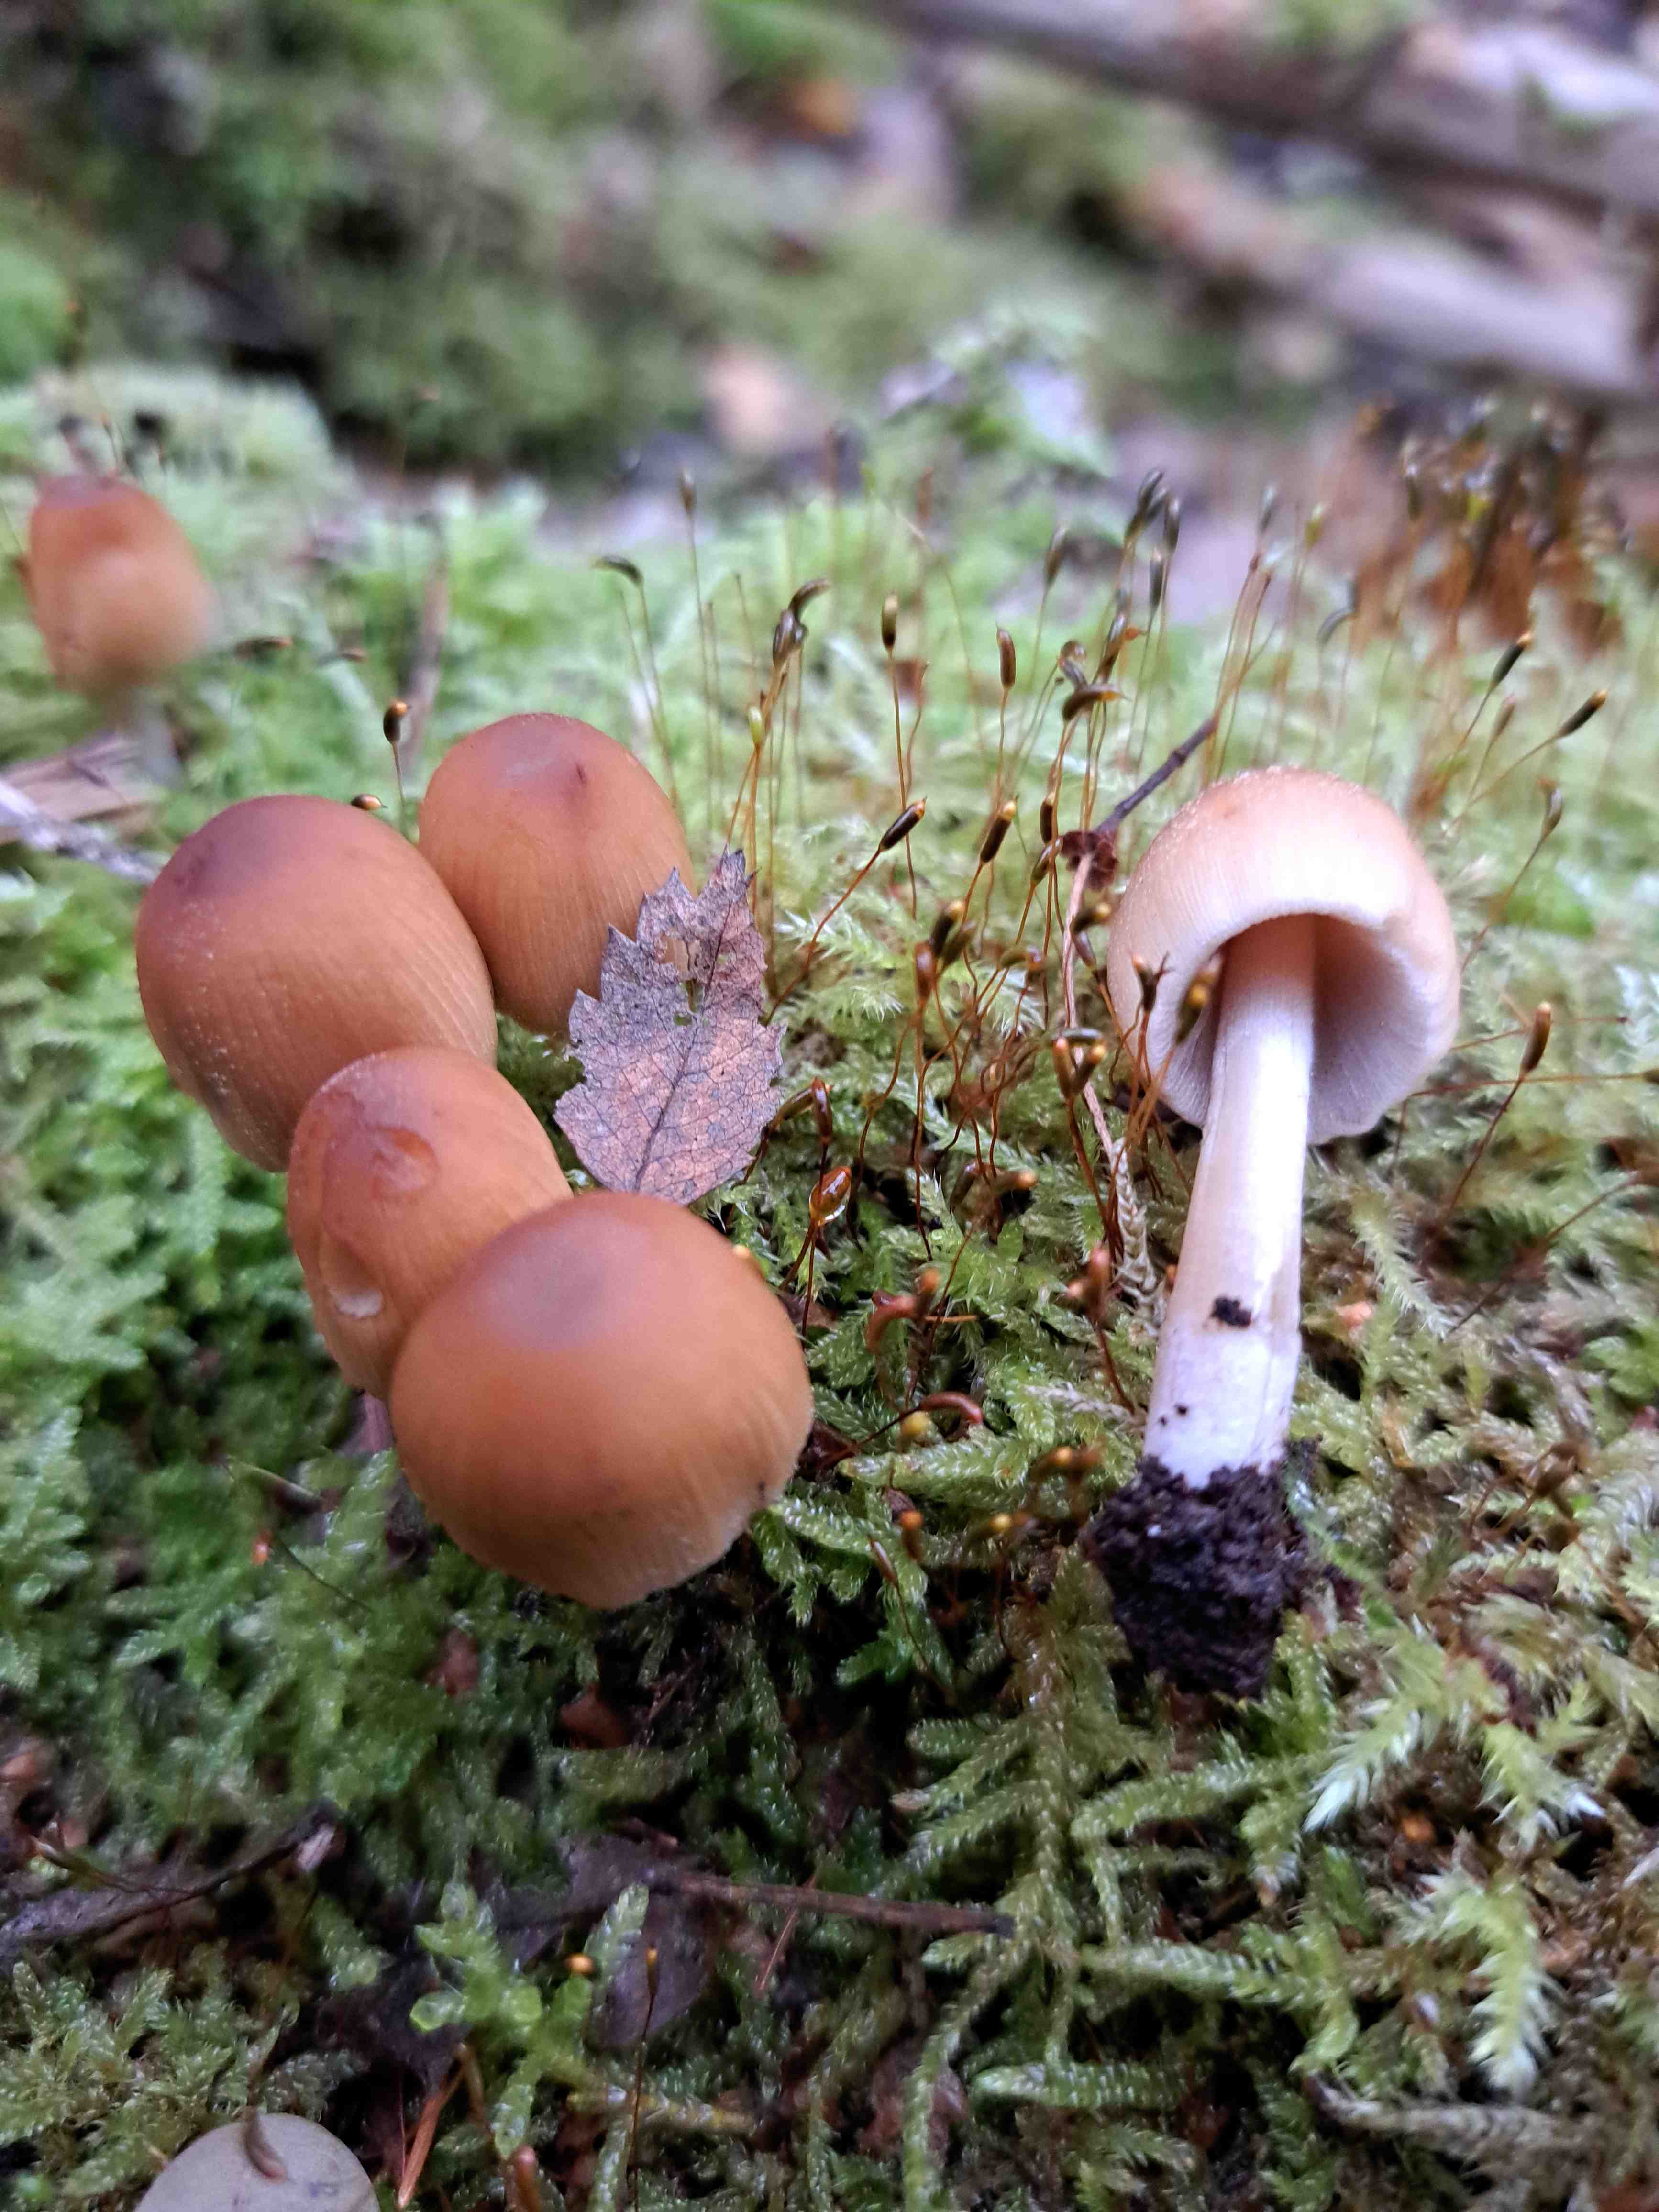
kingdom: Fungi
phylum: Basidiomycota
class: Agaricomycetes
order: Agaricales
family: Psathyrellaceae
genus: Coprinellus
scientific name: Coprinellus
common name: blækhat
